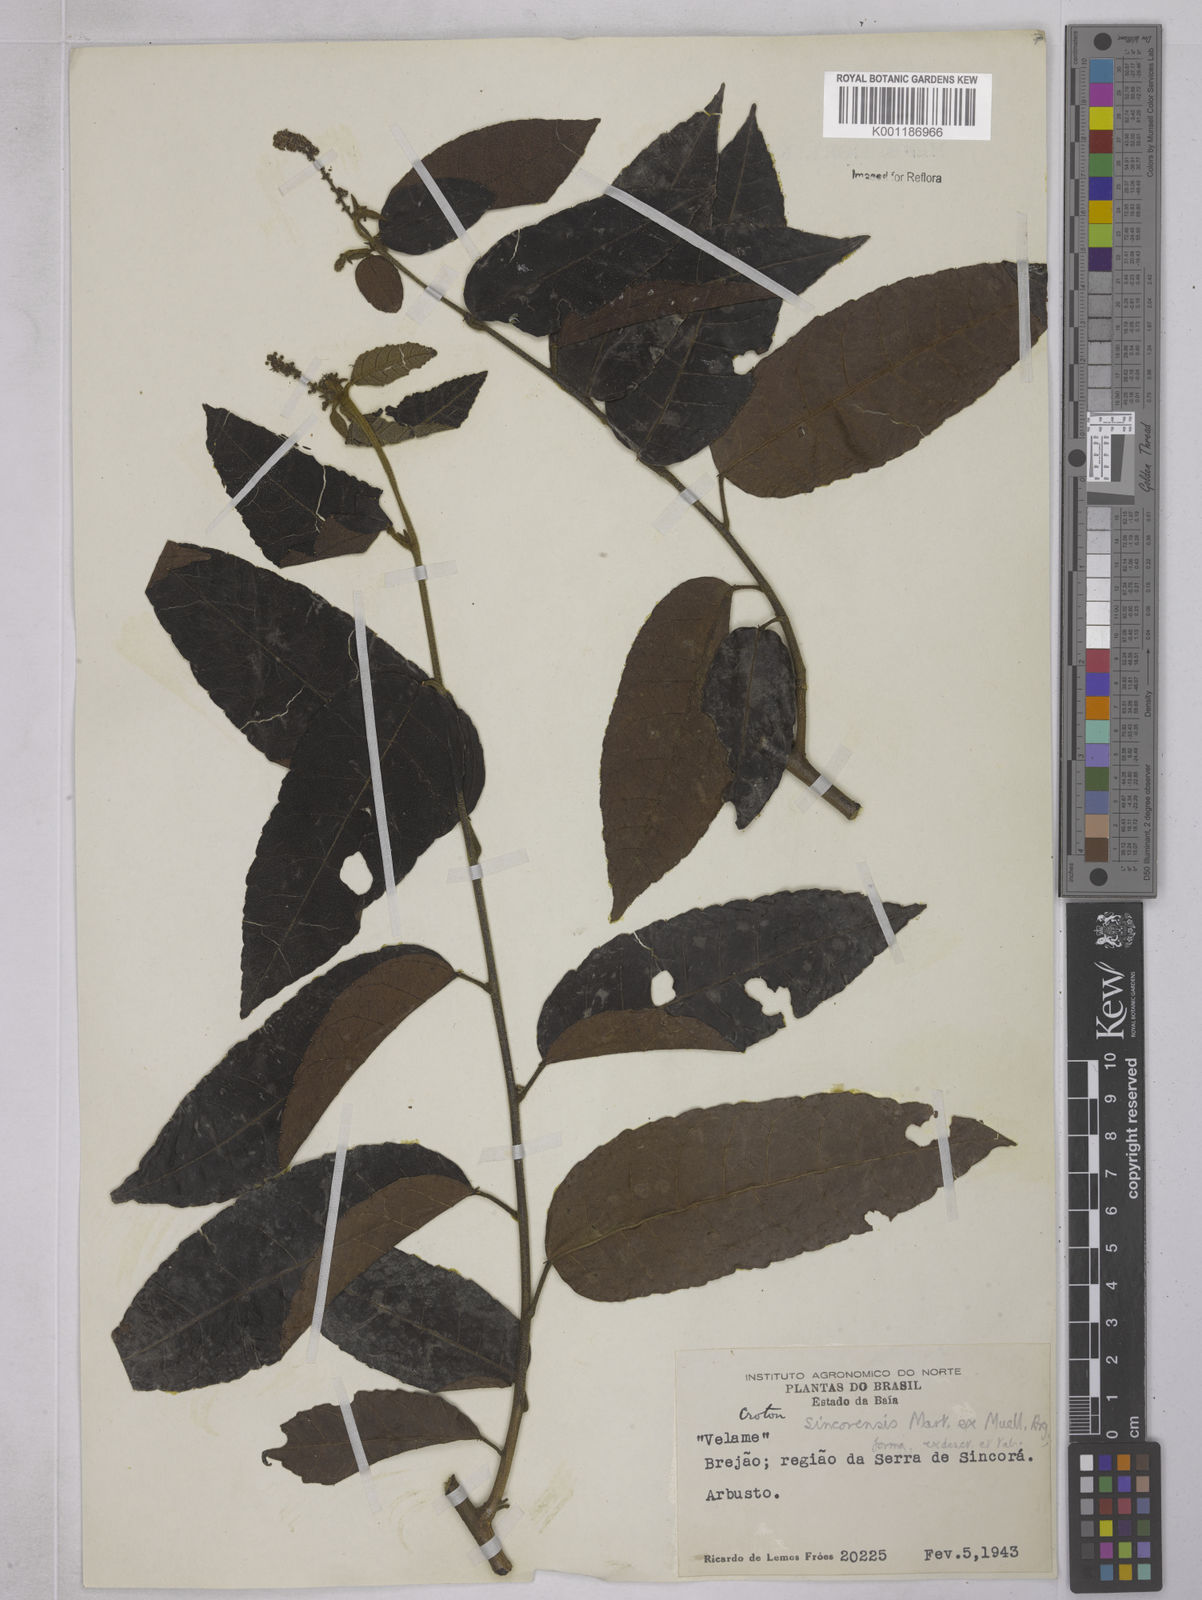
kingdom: Plantae
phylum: Tracheophyta
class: Magnoliopsida
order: Malpighiales
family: Euphorbiaceae
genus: Croton
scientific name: Croton sincorensis
